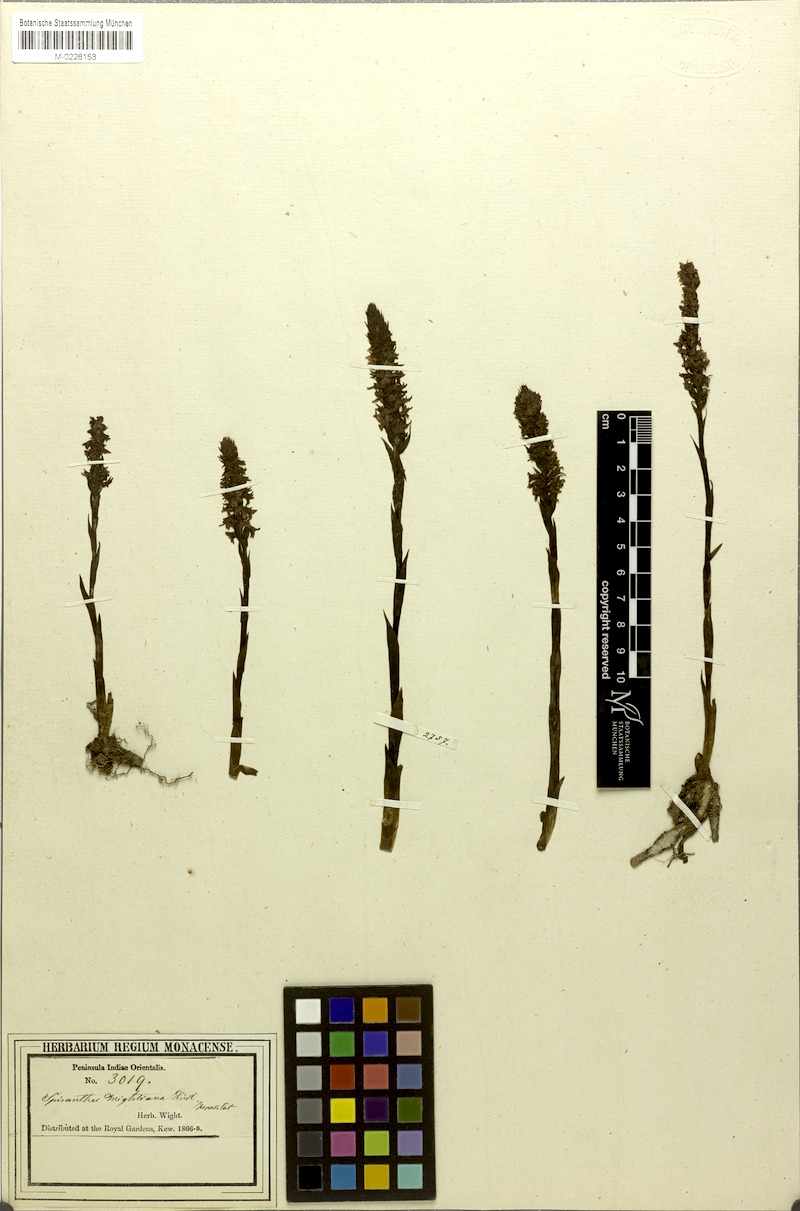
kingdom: Plantae
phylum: Tracheophyta
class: Liliopsida
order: Asparagales
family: Orchidaceae
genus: Spiranthes
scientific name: Spiranthes sinensis
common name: Chinese spiranthes
